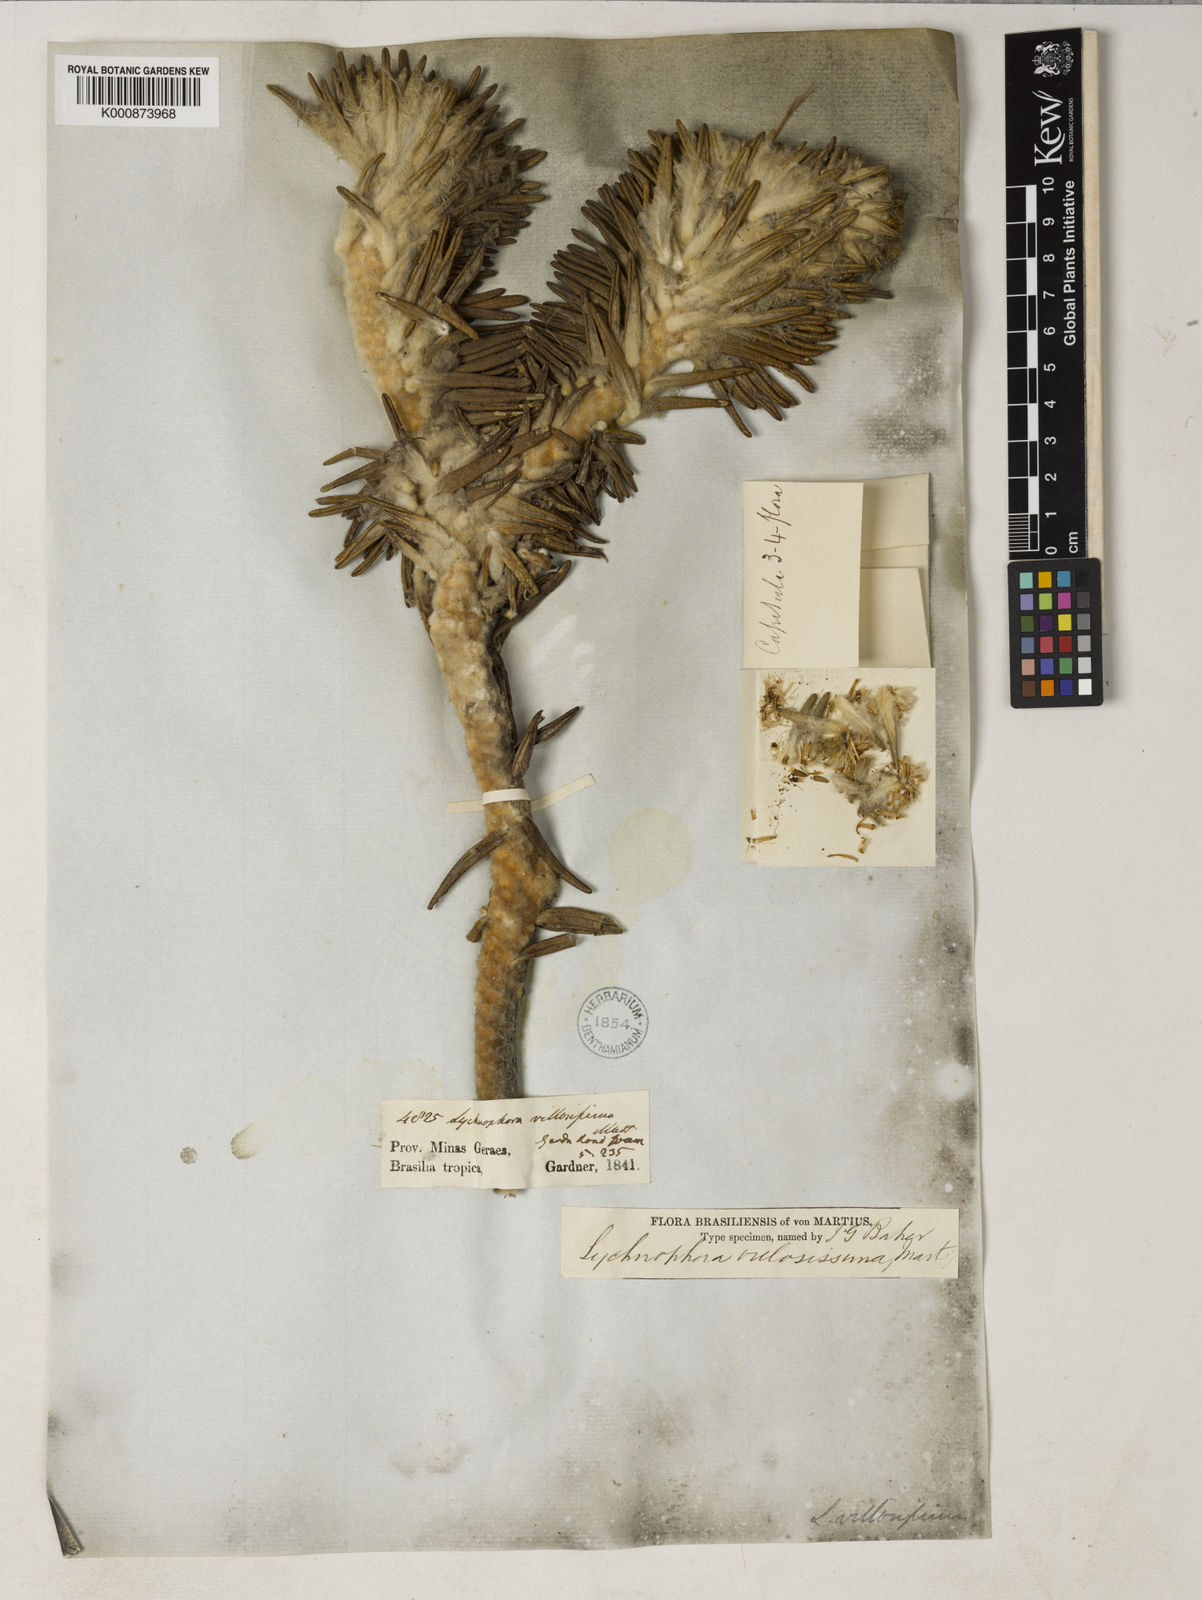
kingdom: Plantae
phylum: Tracheophyta
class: Magnoliopsida
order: Asterales
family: Asteraceae
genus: Lychnophora
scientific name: Lychnophora villosissima
